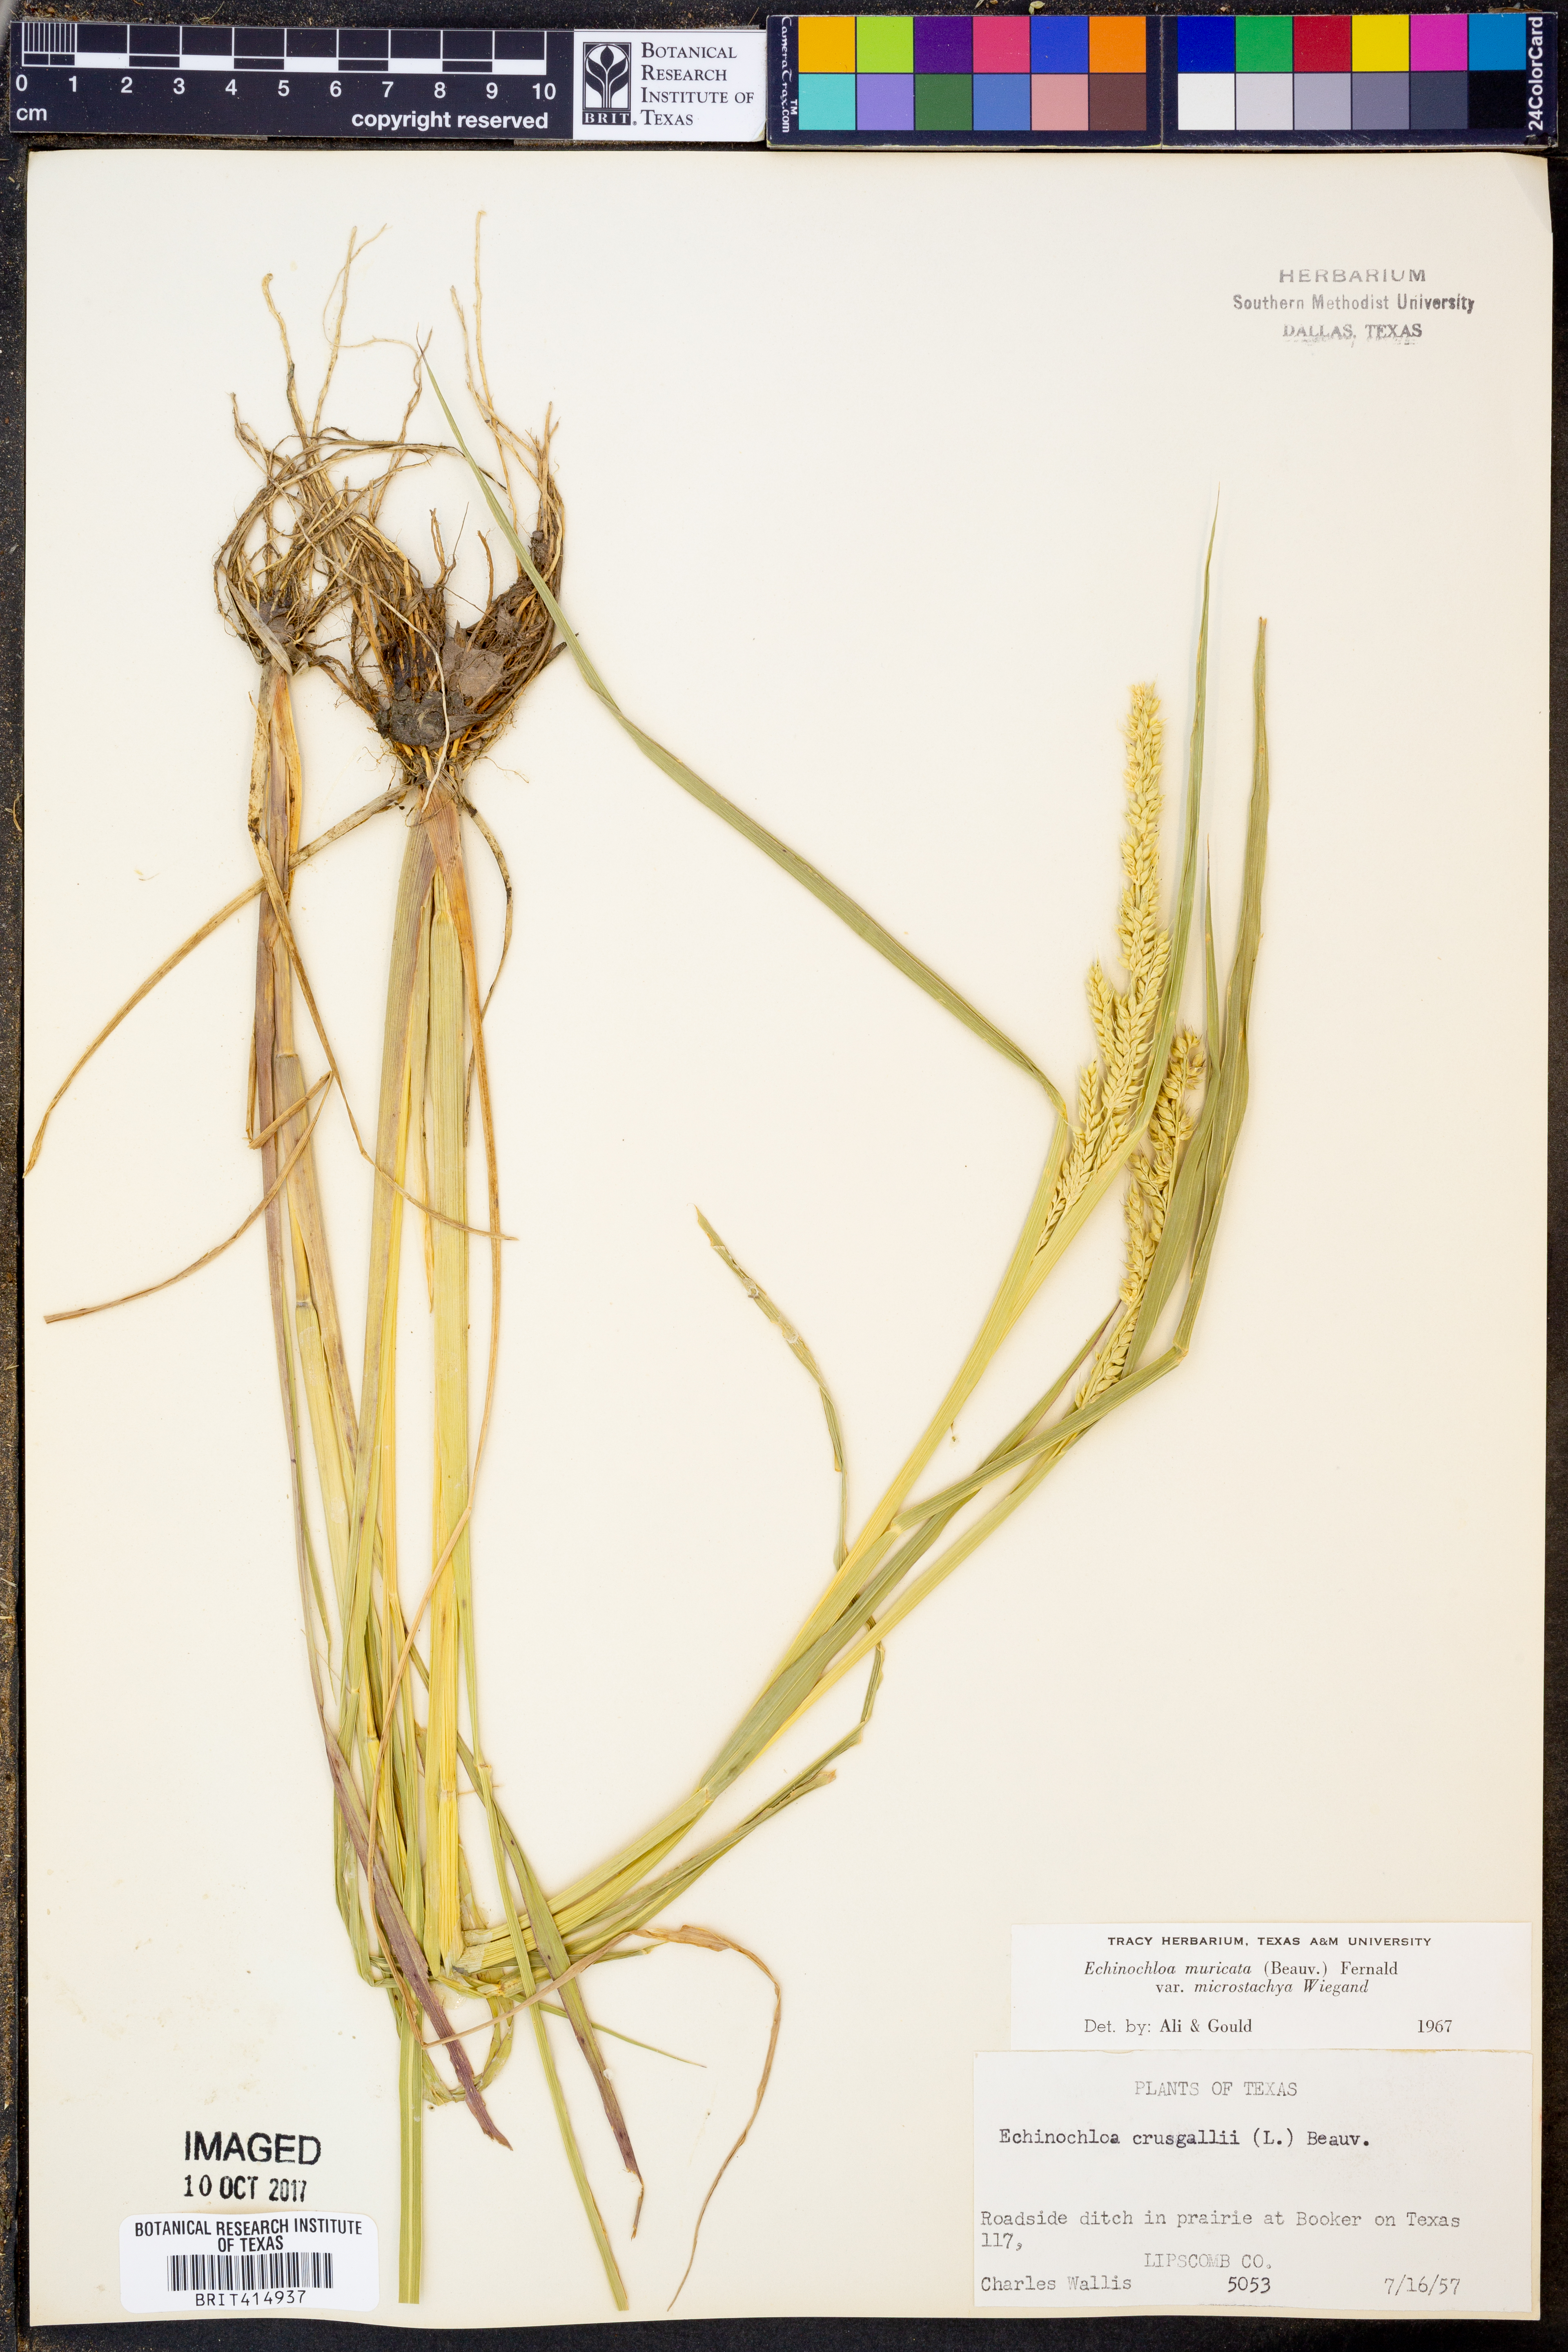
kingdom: Plantae
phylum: Tracheophyta
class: Liliopsida
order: Poales
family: Poaceae
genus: Echinochloa
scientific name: Echinochloa muricata
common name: American barnyard grass
